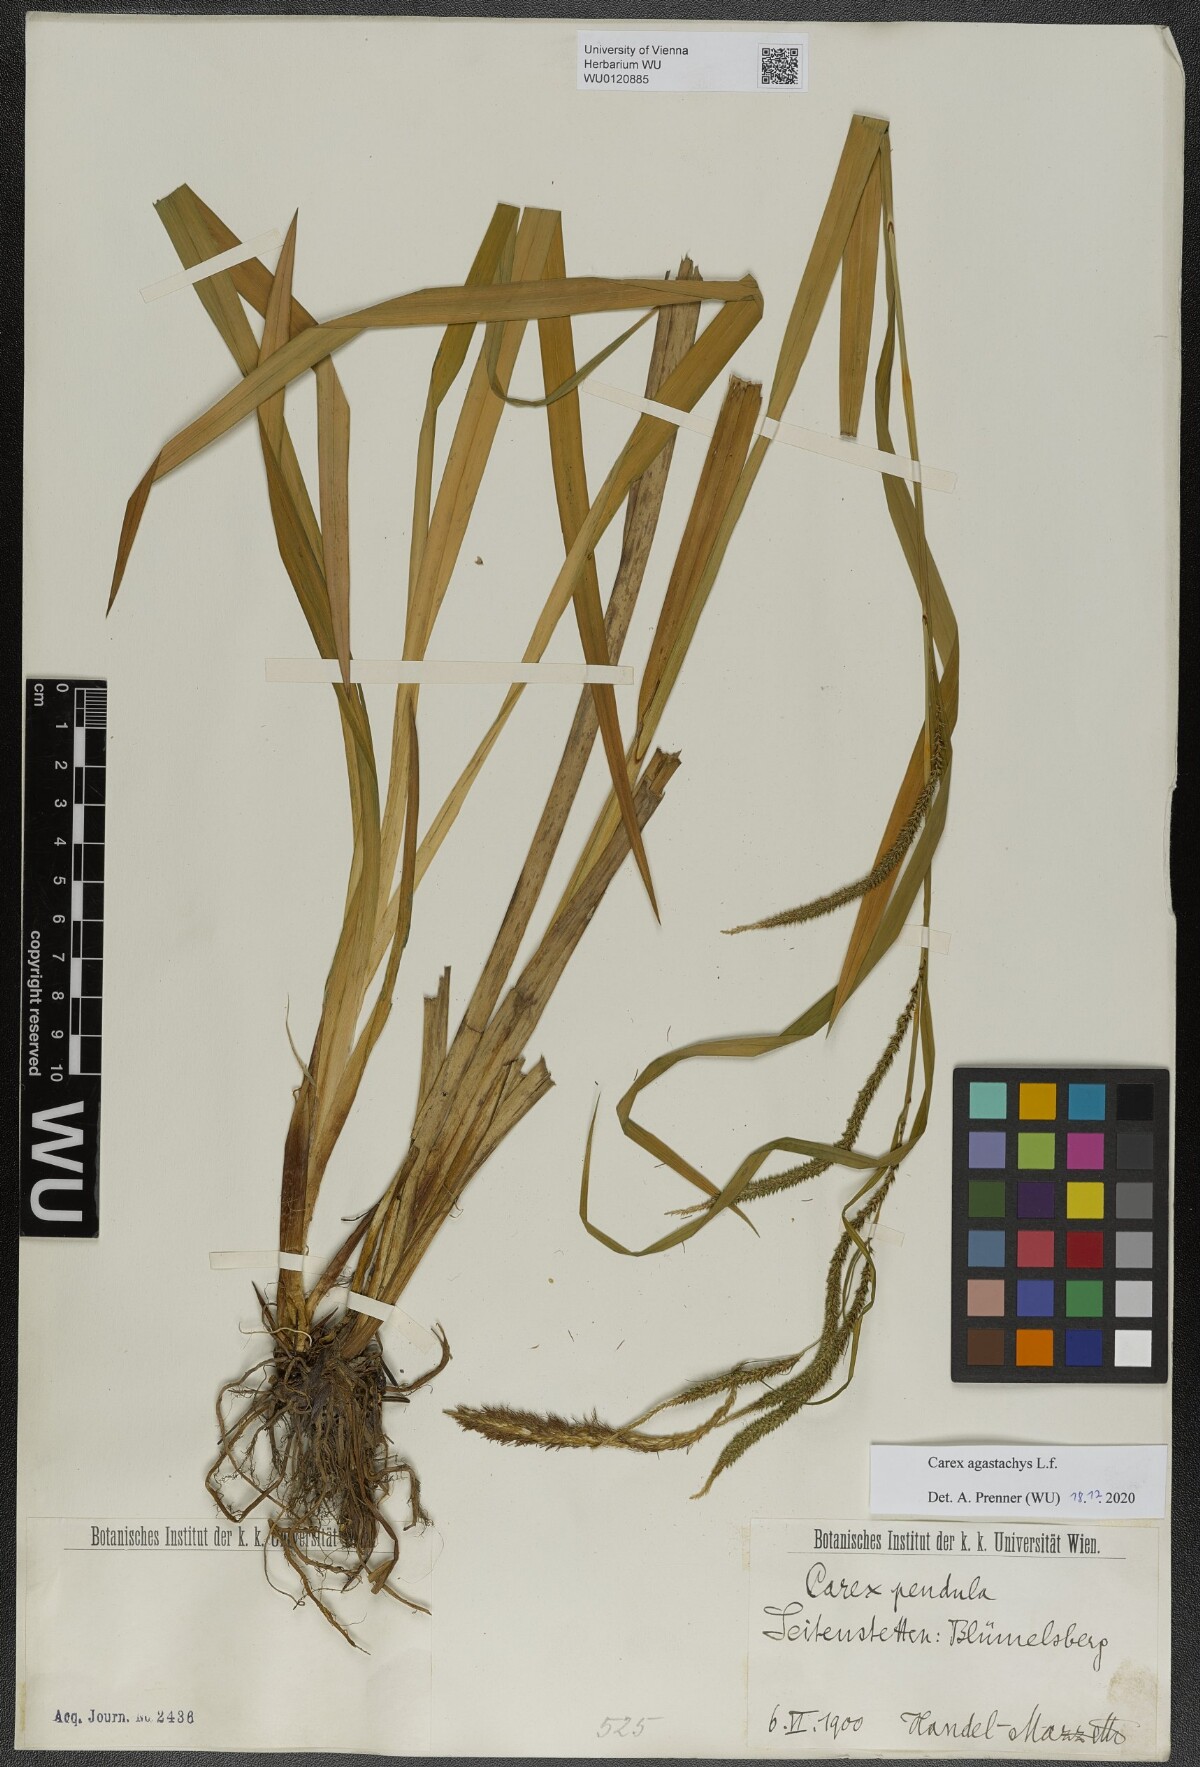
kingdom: Plantae
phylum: Tracheophyta
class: Liliopsida
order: Poales
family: Cyperaceae
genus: Carex
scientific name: Carex agastachys
